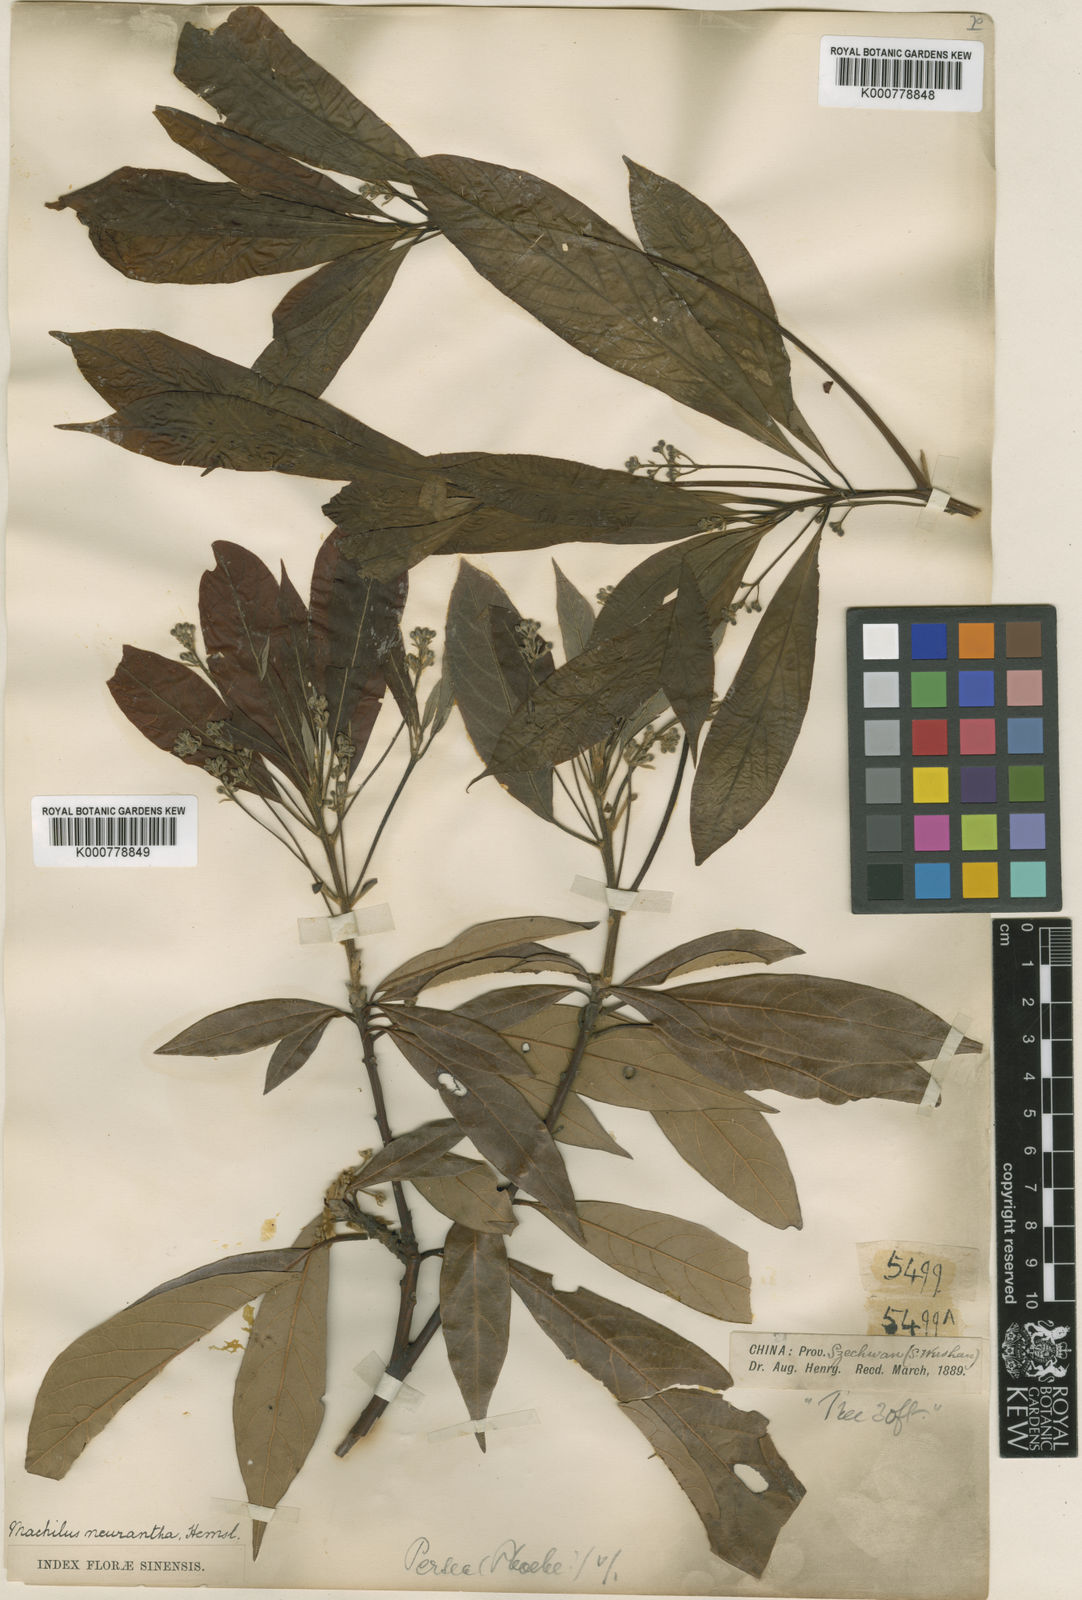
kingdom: Plantae
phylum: Tracheophyta
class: Magnoliopsida
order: Laurales
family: Lauraceae
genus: Phoebe
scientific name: Phoebe neurantha
